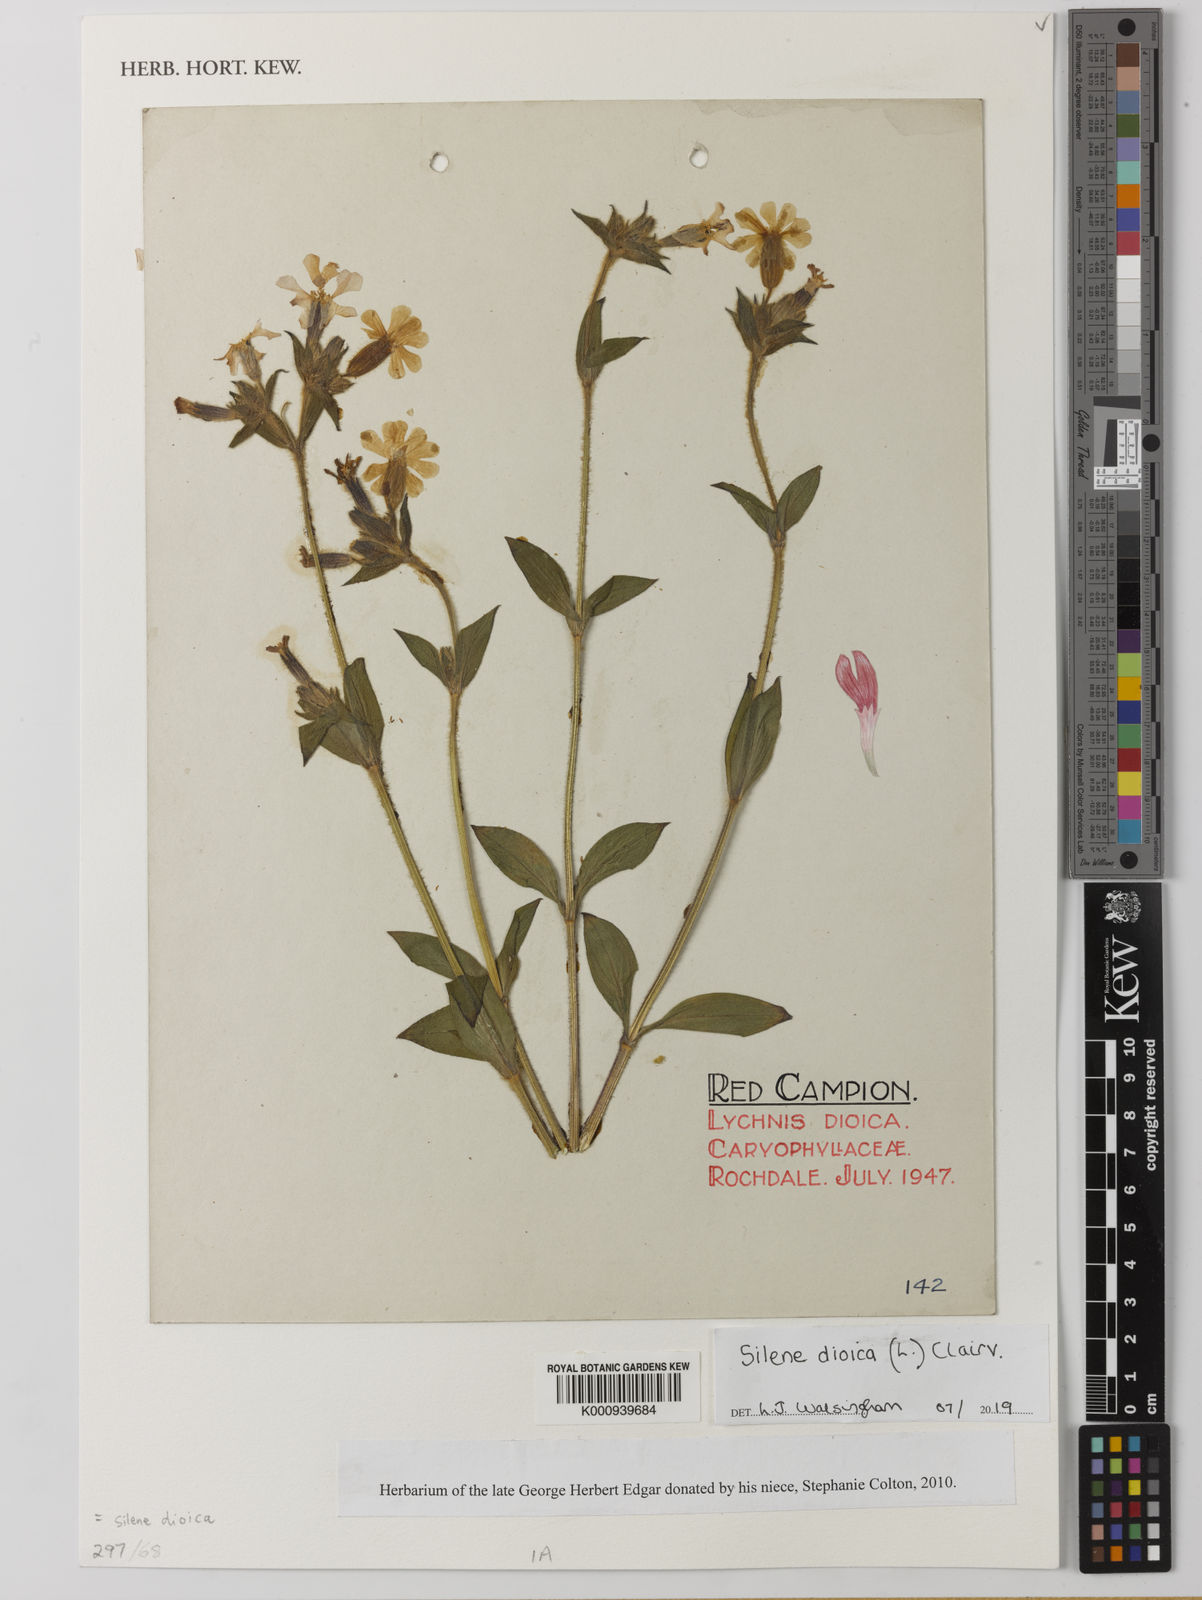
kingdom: Plantae
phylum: Tracheophyta
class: Magnoliopsida
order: Caryophyllales
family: Caryophyllaceae
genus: Silene
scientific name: Silene
